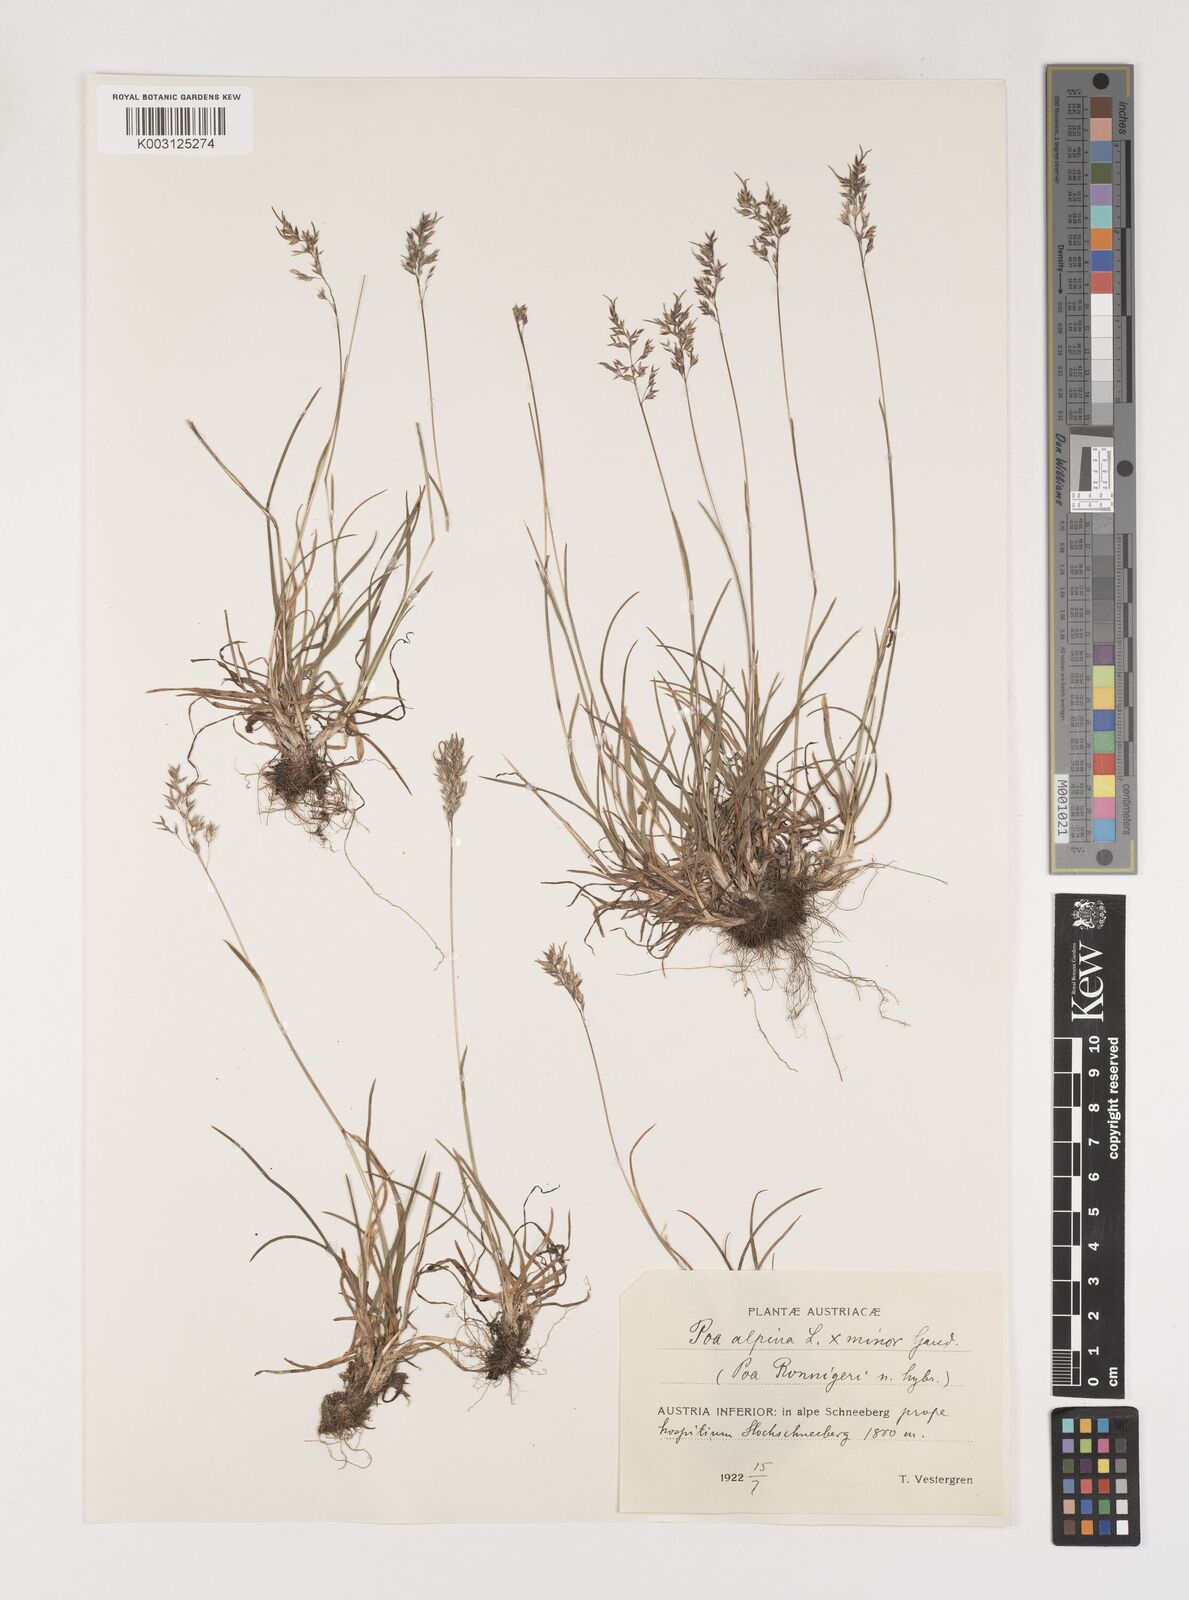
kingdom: Plantae
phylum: Tracheophyta
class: Liliopsida
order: Poales
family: Poaceae
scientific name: Poaceae
